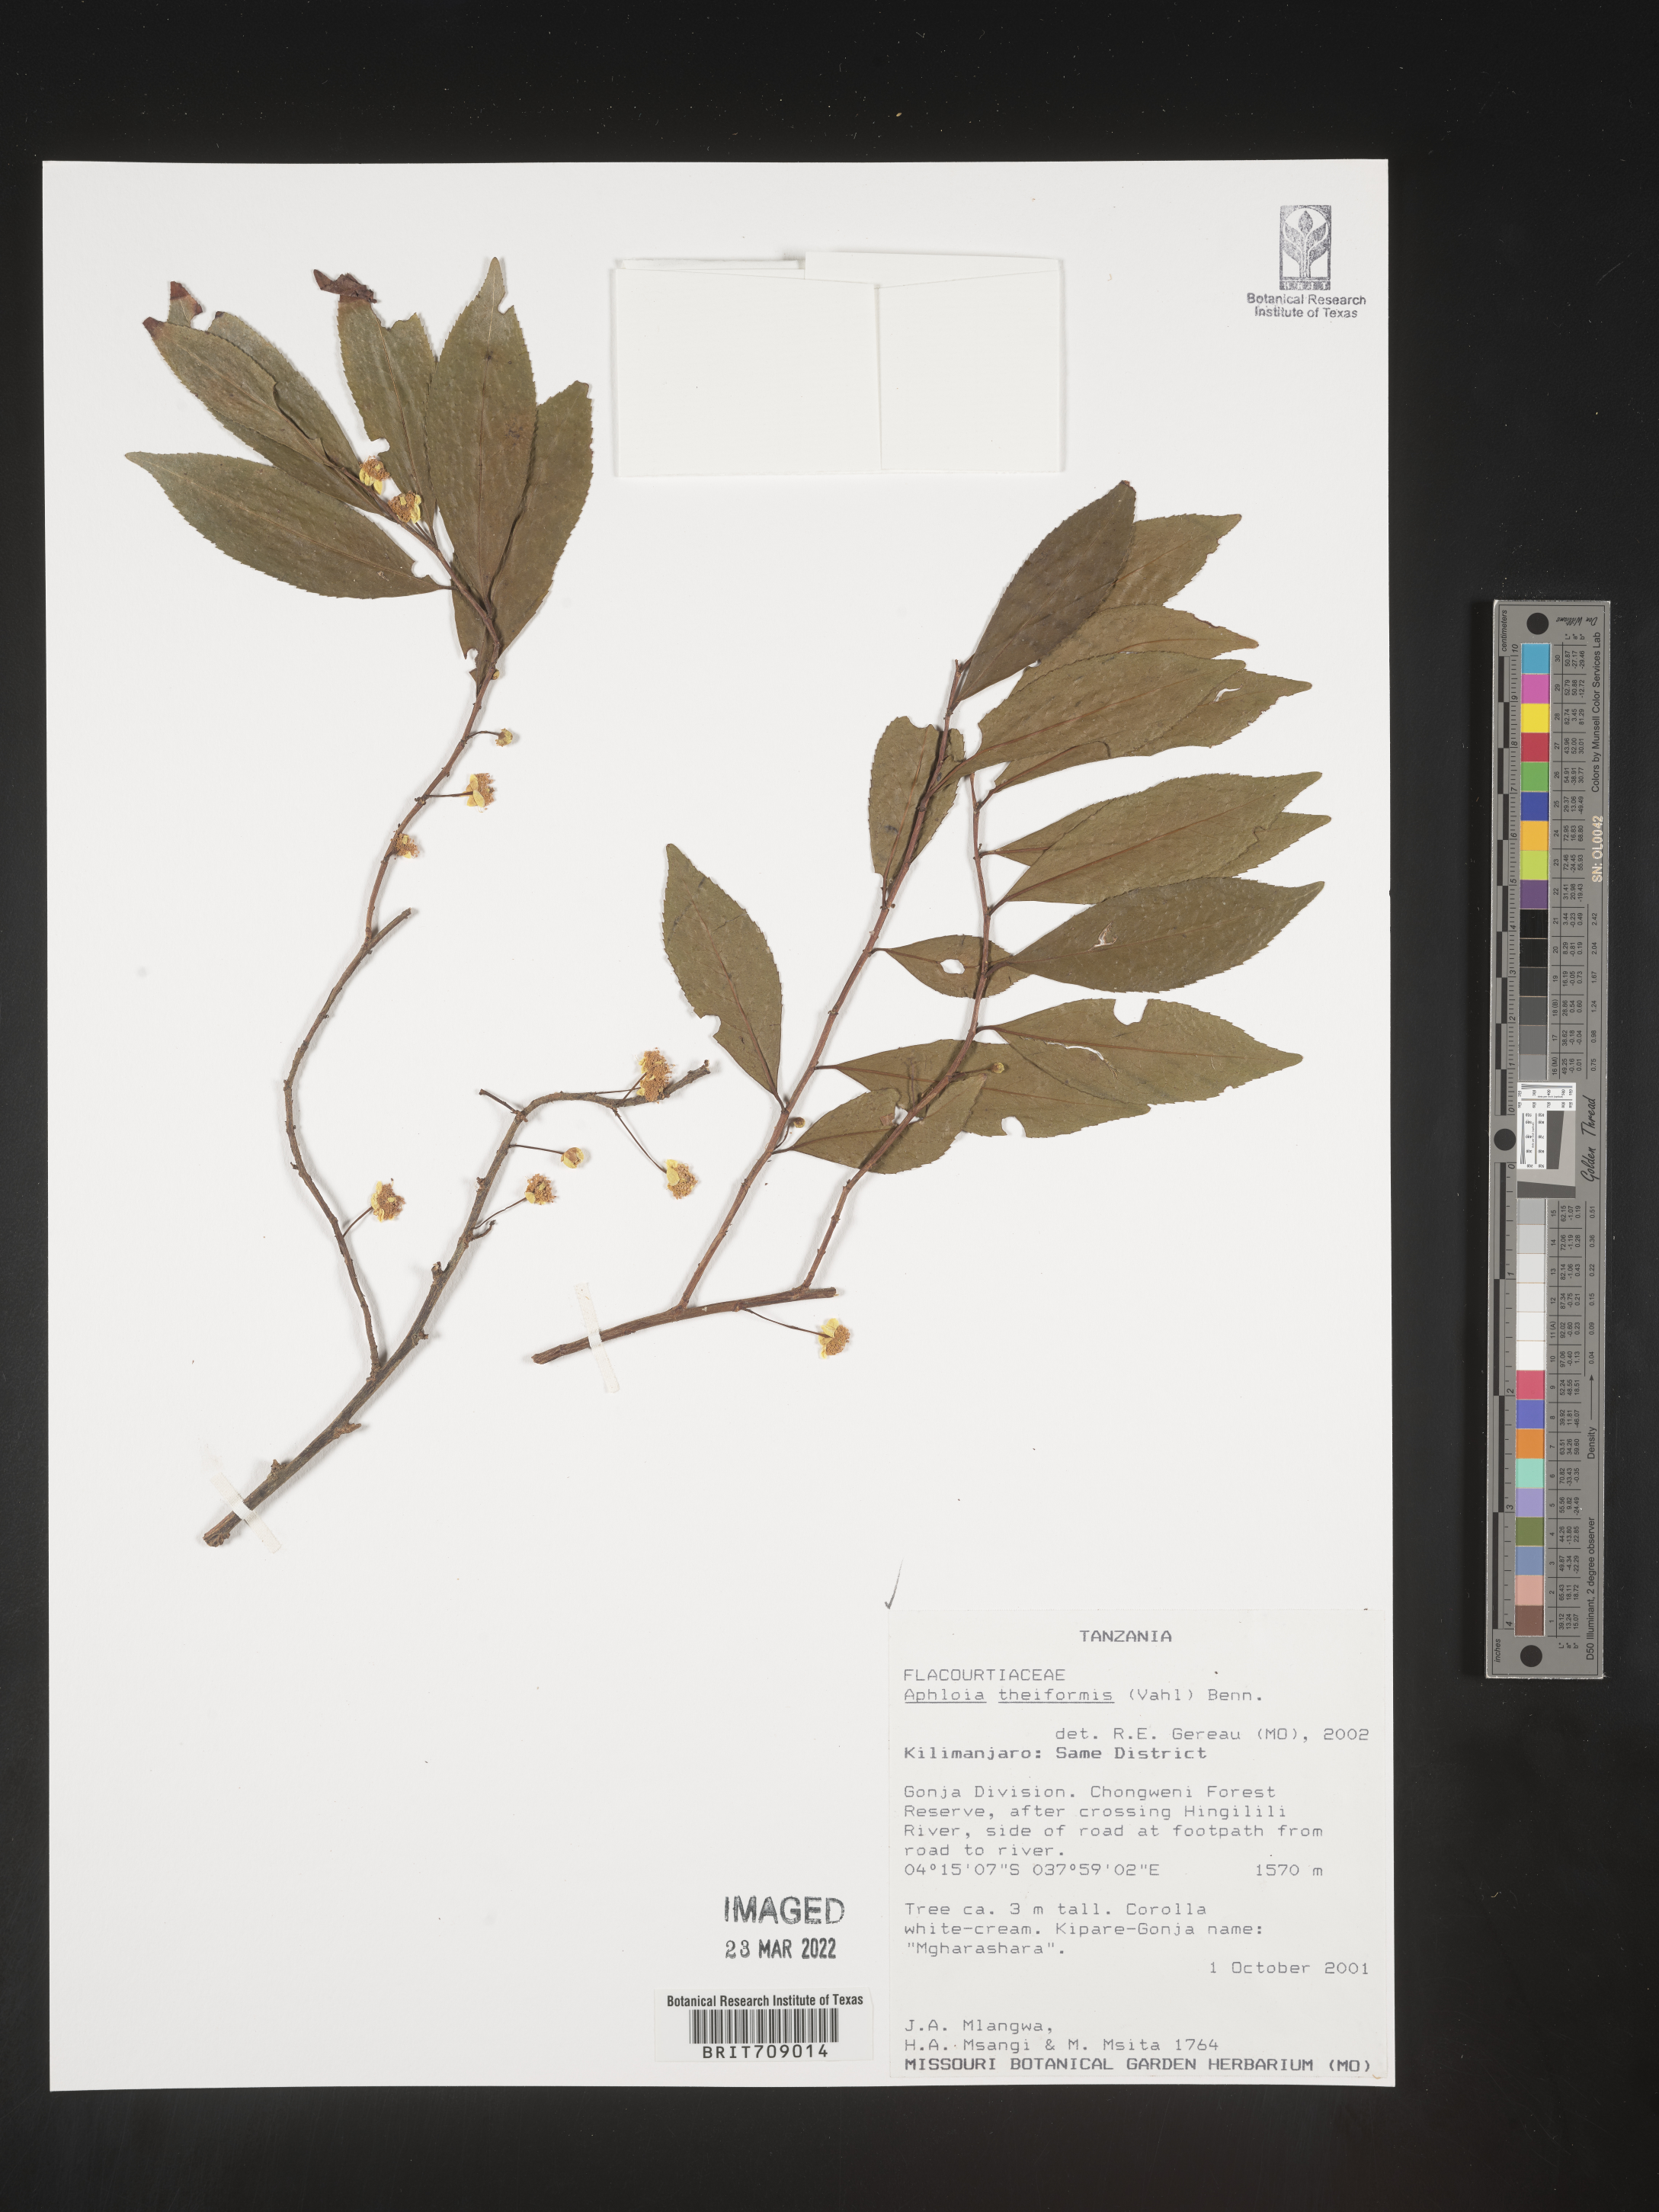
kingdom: Plantae
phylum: Tracheophyta
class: Magnoliopsida
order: Crossosomatales
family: Aphloiaceae
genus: Aphloia
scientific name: Aphloia
